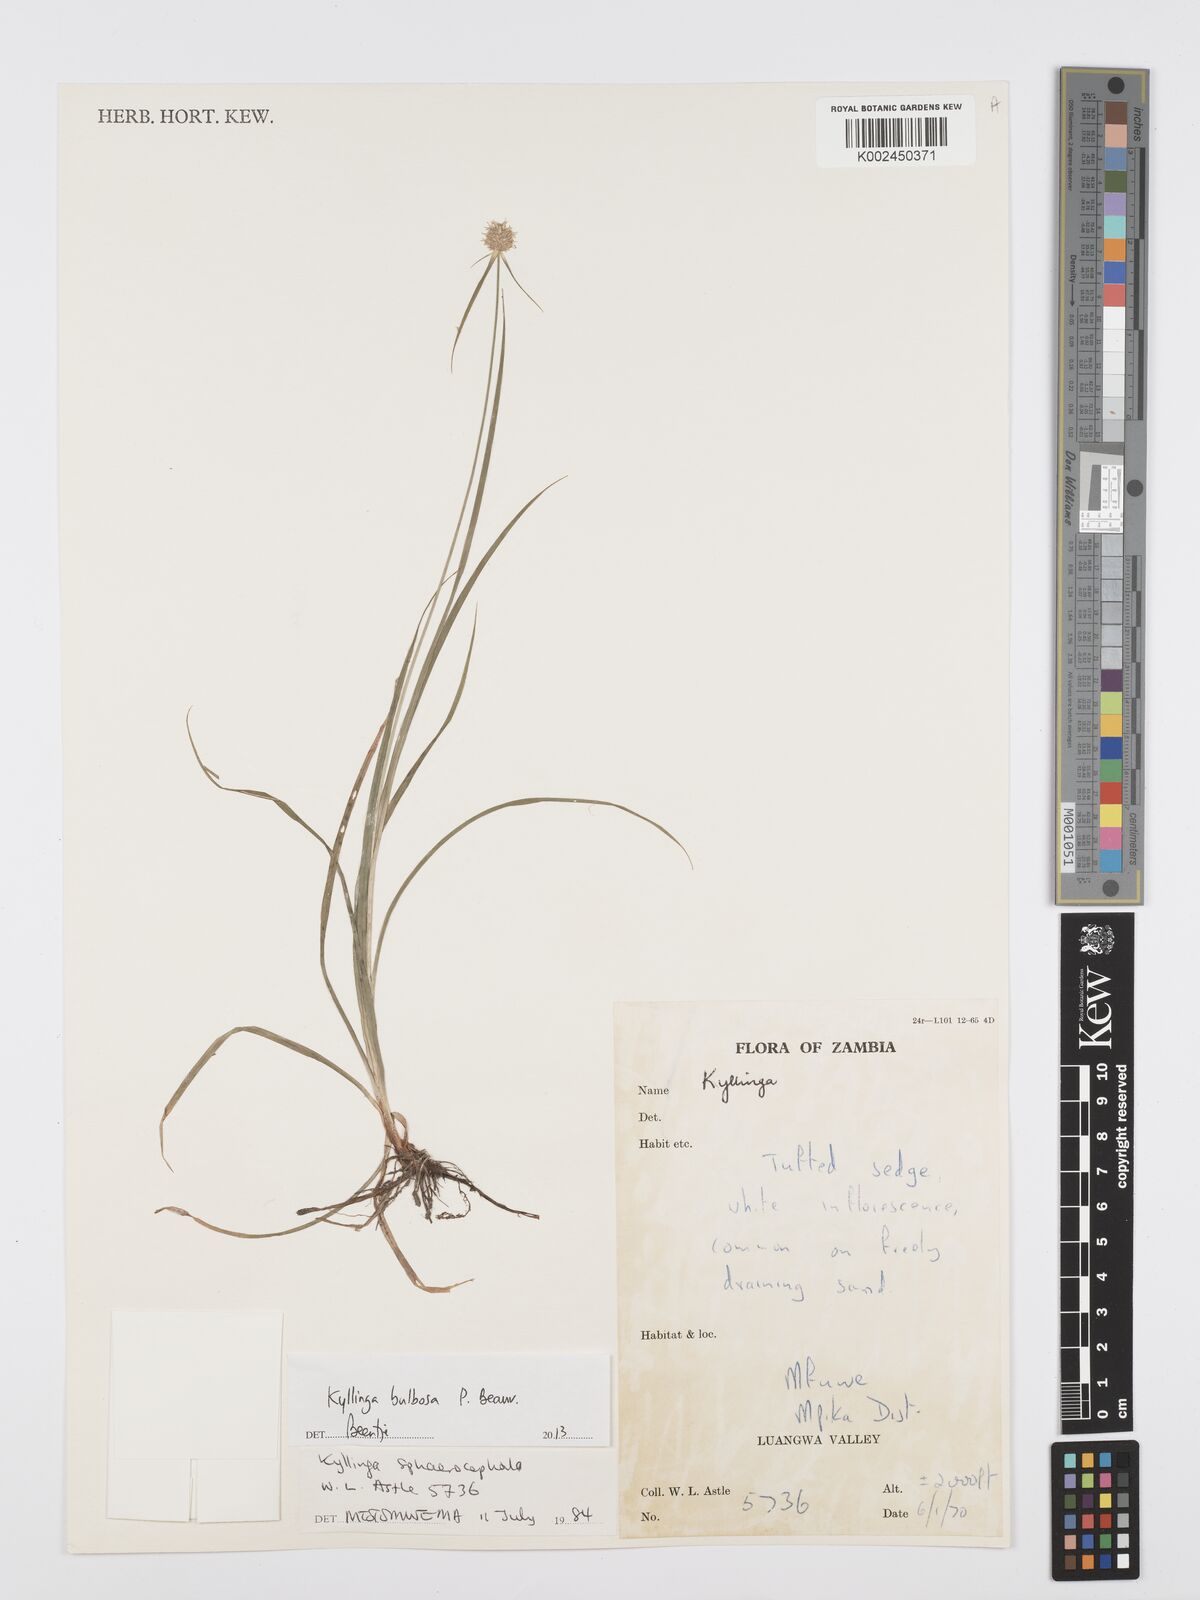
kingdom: Plantae
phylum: Tracheophyta
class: Liliopsida
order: Poales
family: Cyperaceae
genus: Cyperus
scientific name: Cyperus
